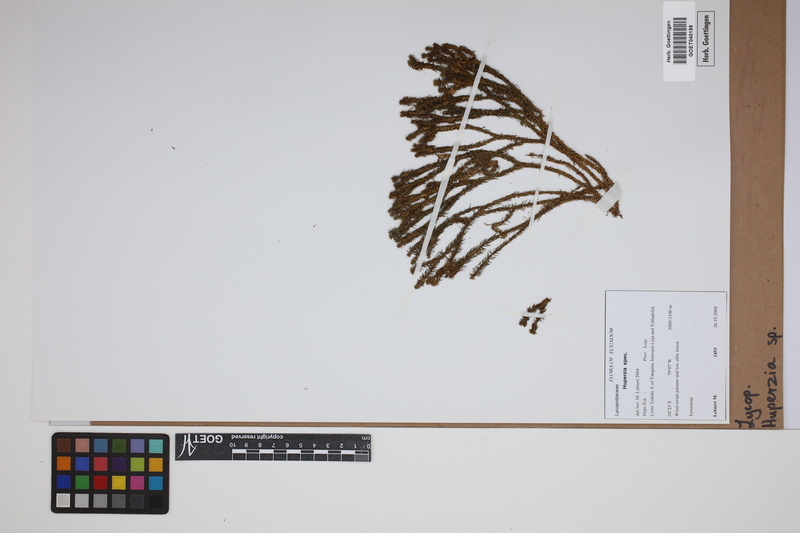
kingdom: Plantae
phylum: Tracheophyta
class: Lycopodiopsida
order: Lycopodiales
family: Lycopodiaceae
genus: Phlegmariurus
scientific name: Phlegmariurus
